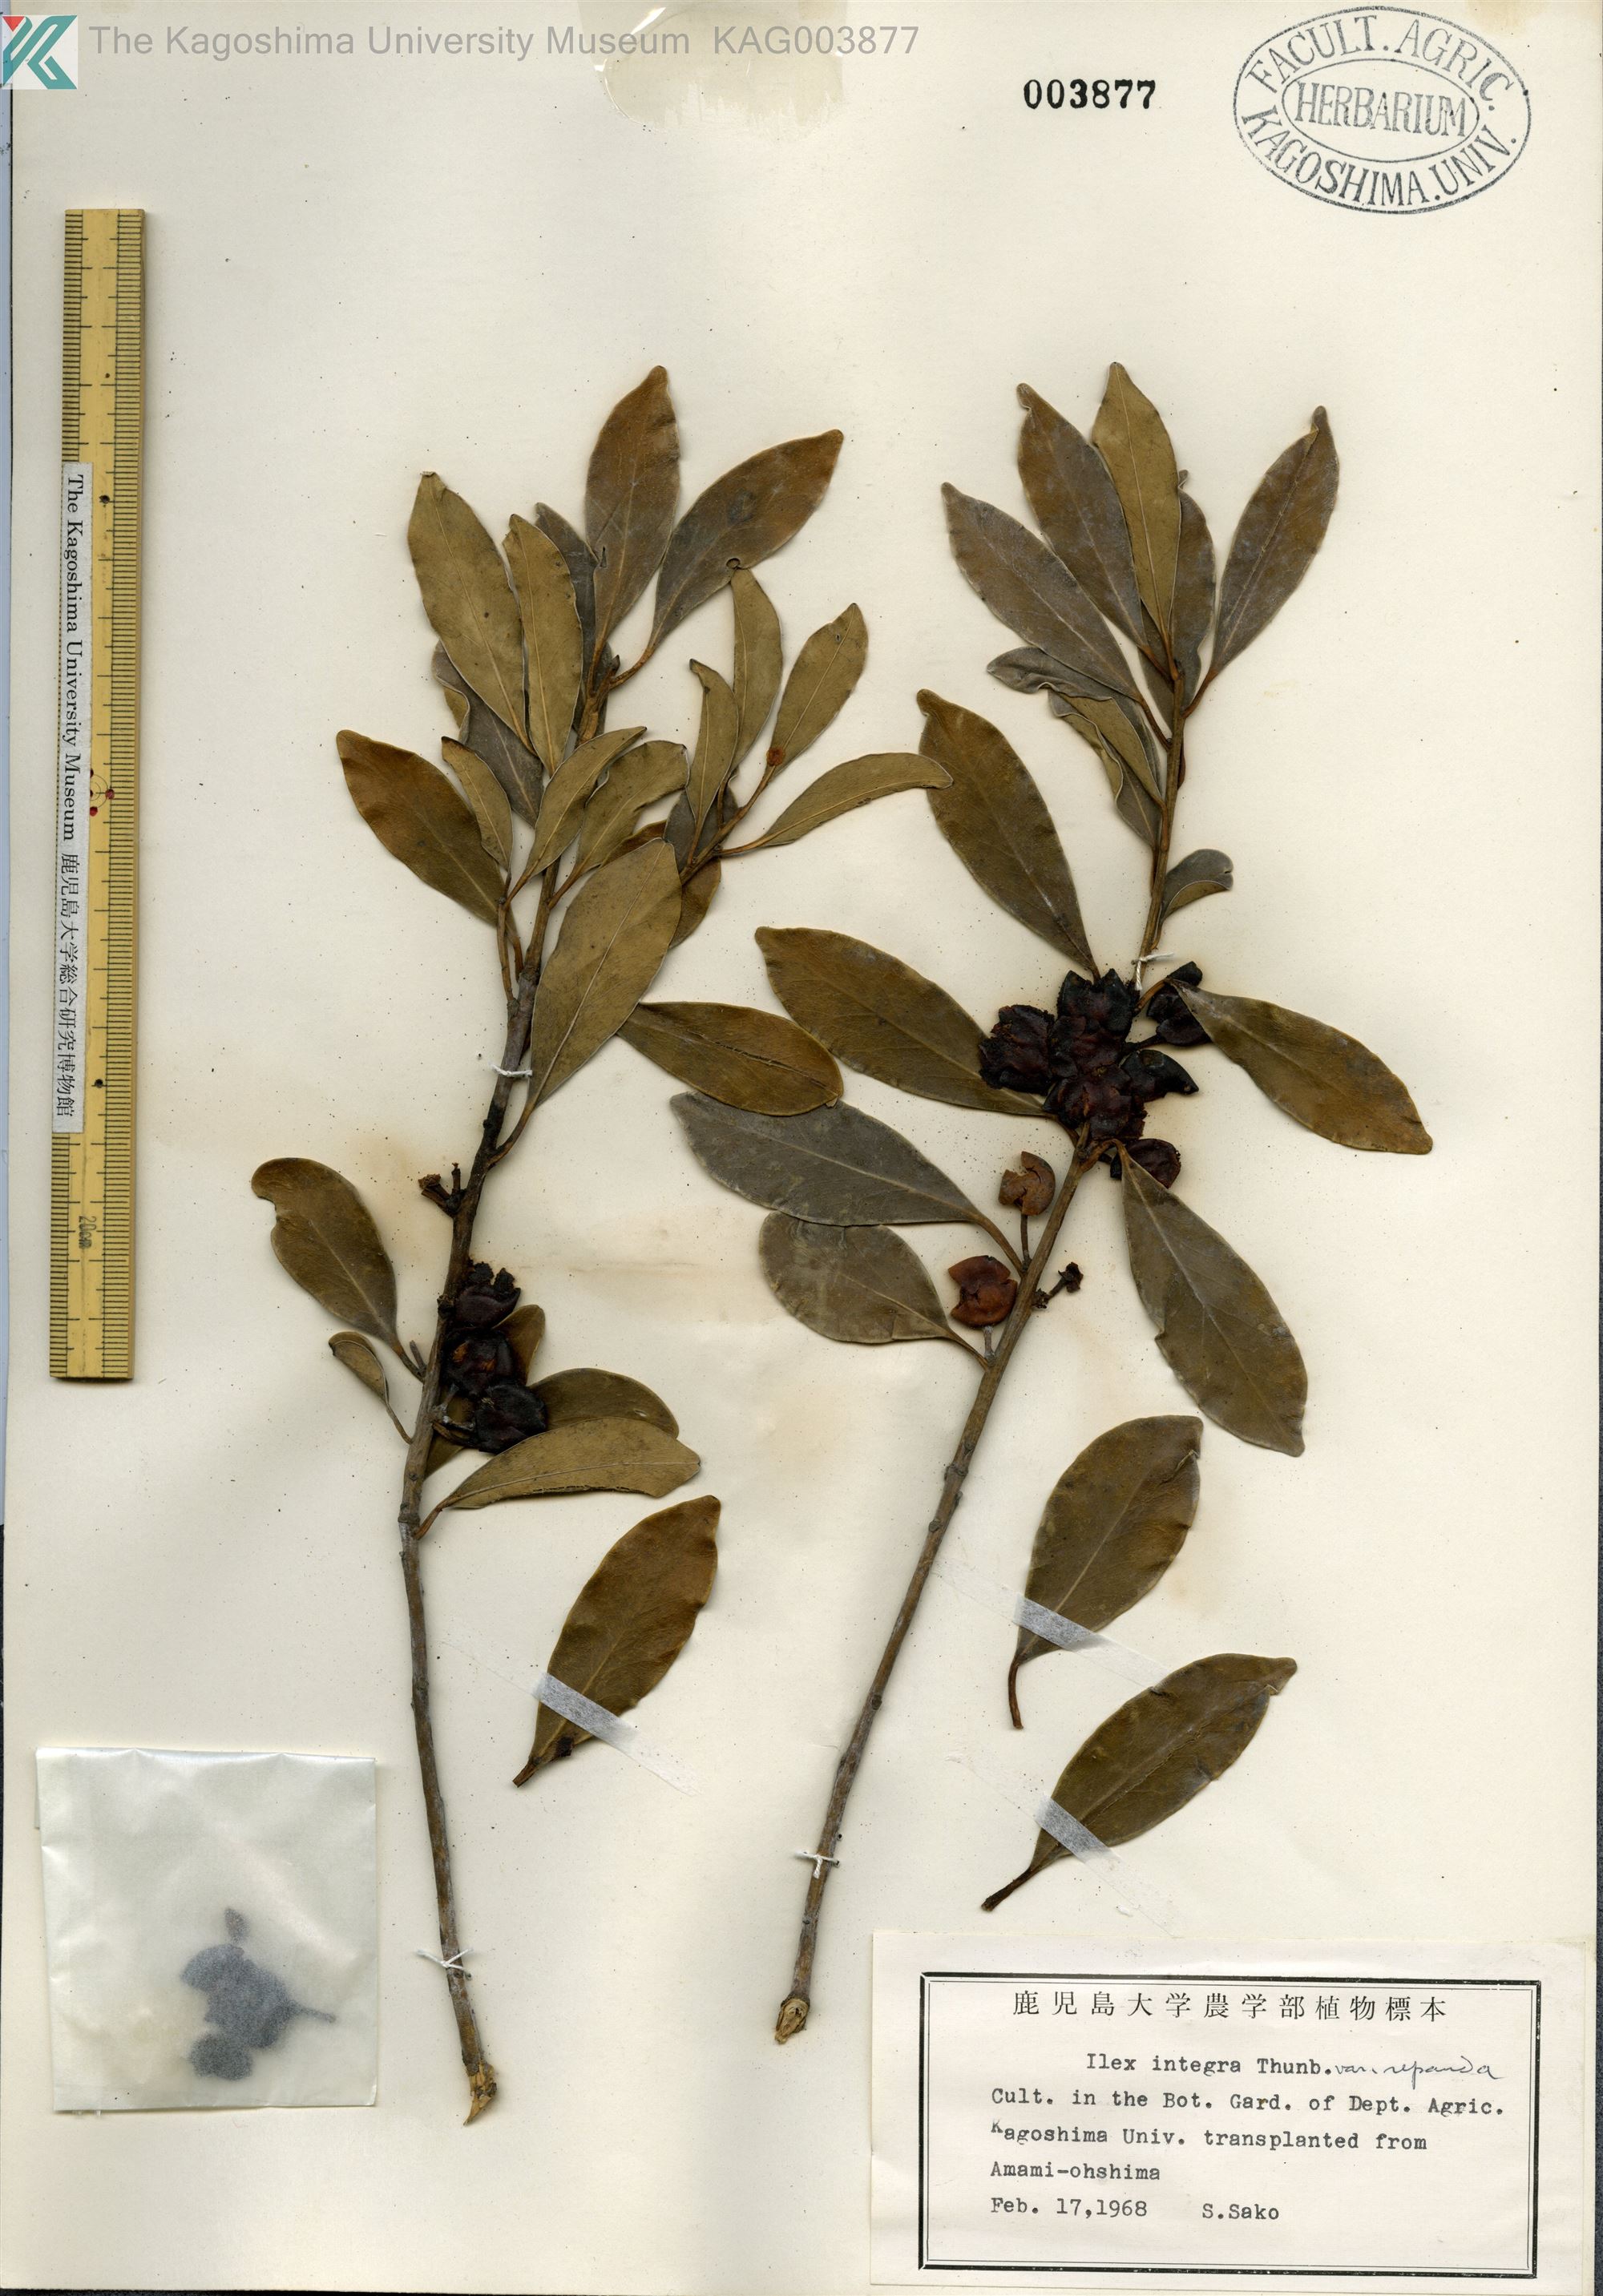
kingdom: Plantae
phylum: Tracheophyta
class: Magnoliopsida
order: Aquifoliales
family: Aquifoliaceae
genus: Ilex
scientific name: Ilex integra
